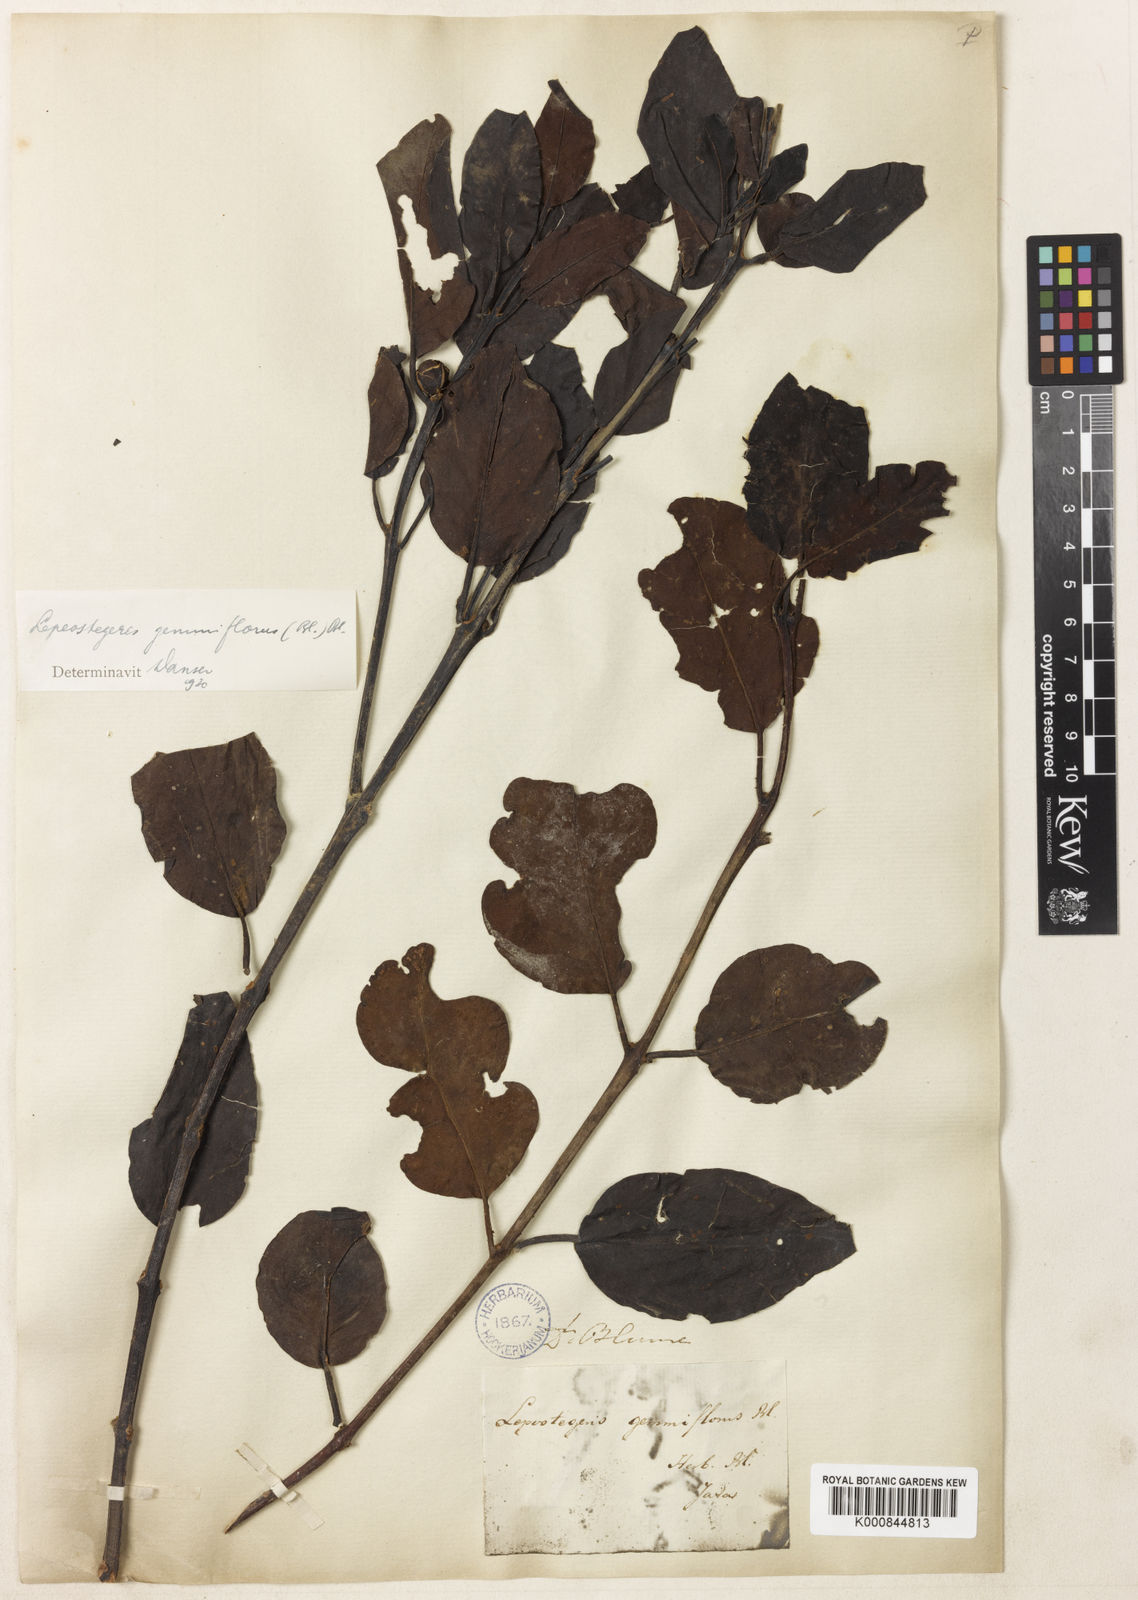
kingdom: Plantae
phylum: Tracheophyta
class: Magnoliopsida
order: Santalales
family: Loranthaceae
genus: Lepeostegeres
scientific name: Lepeostegeres gemmiflorus
